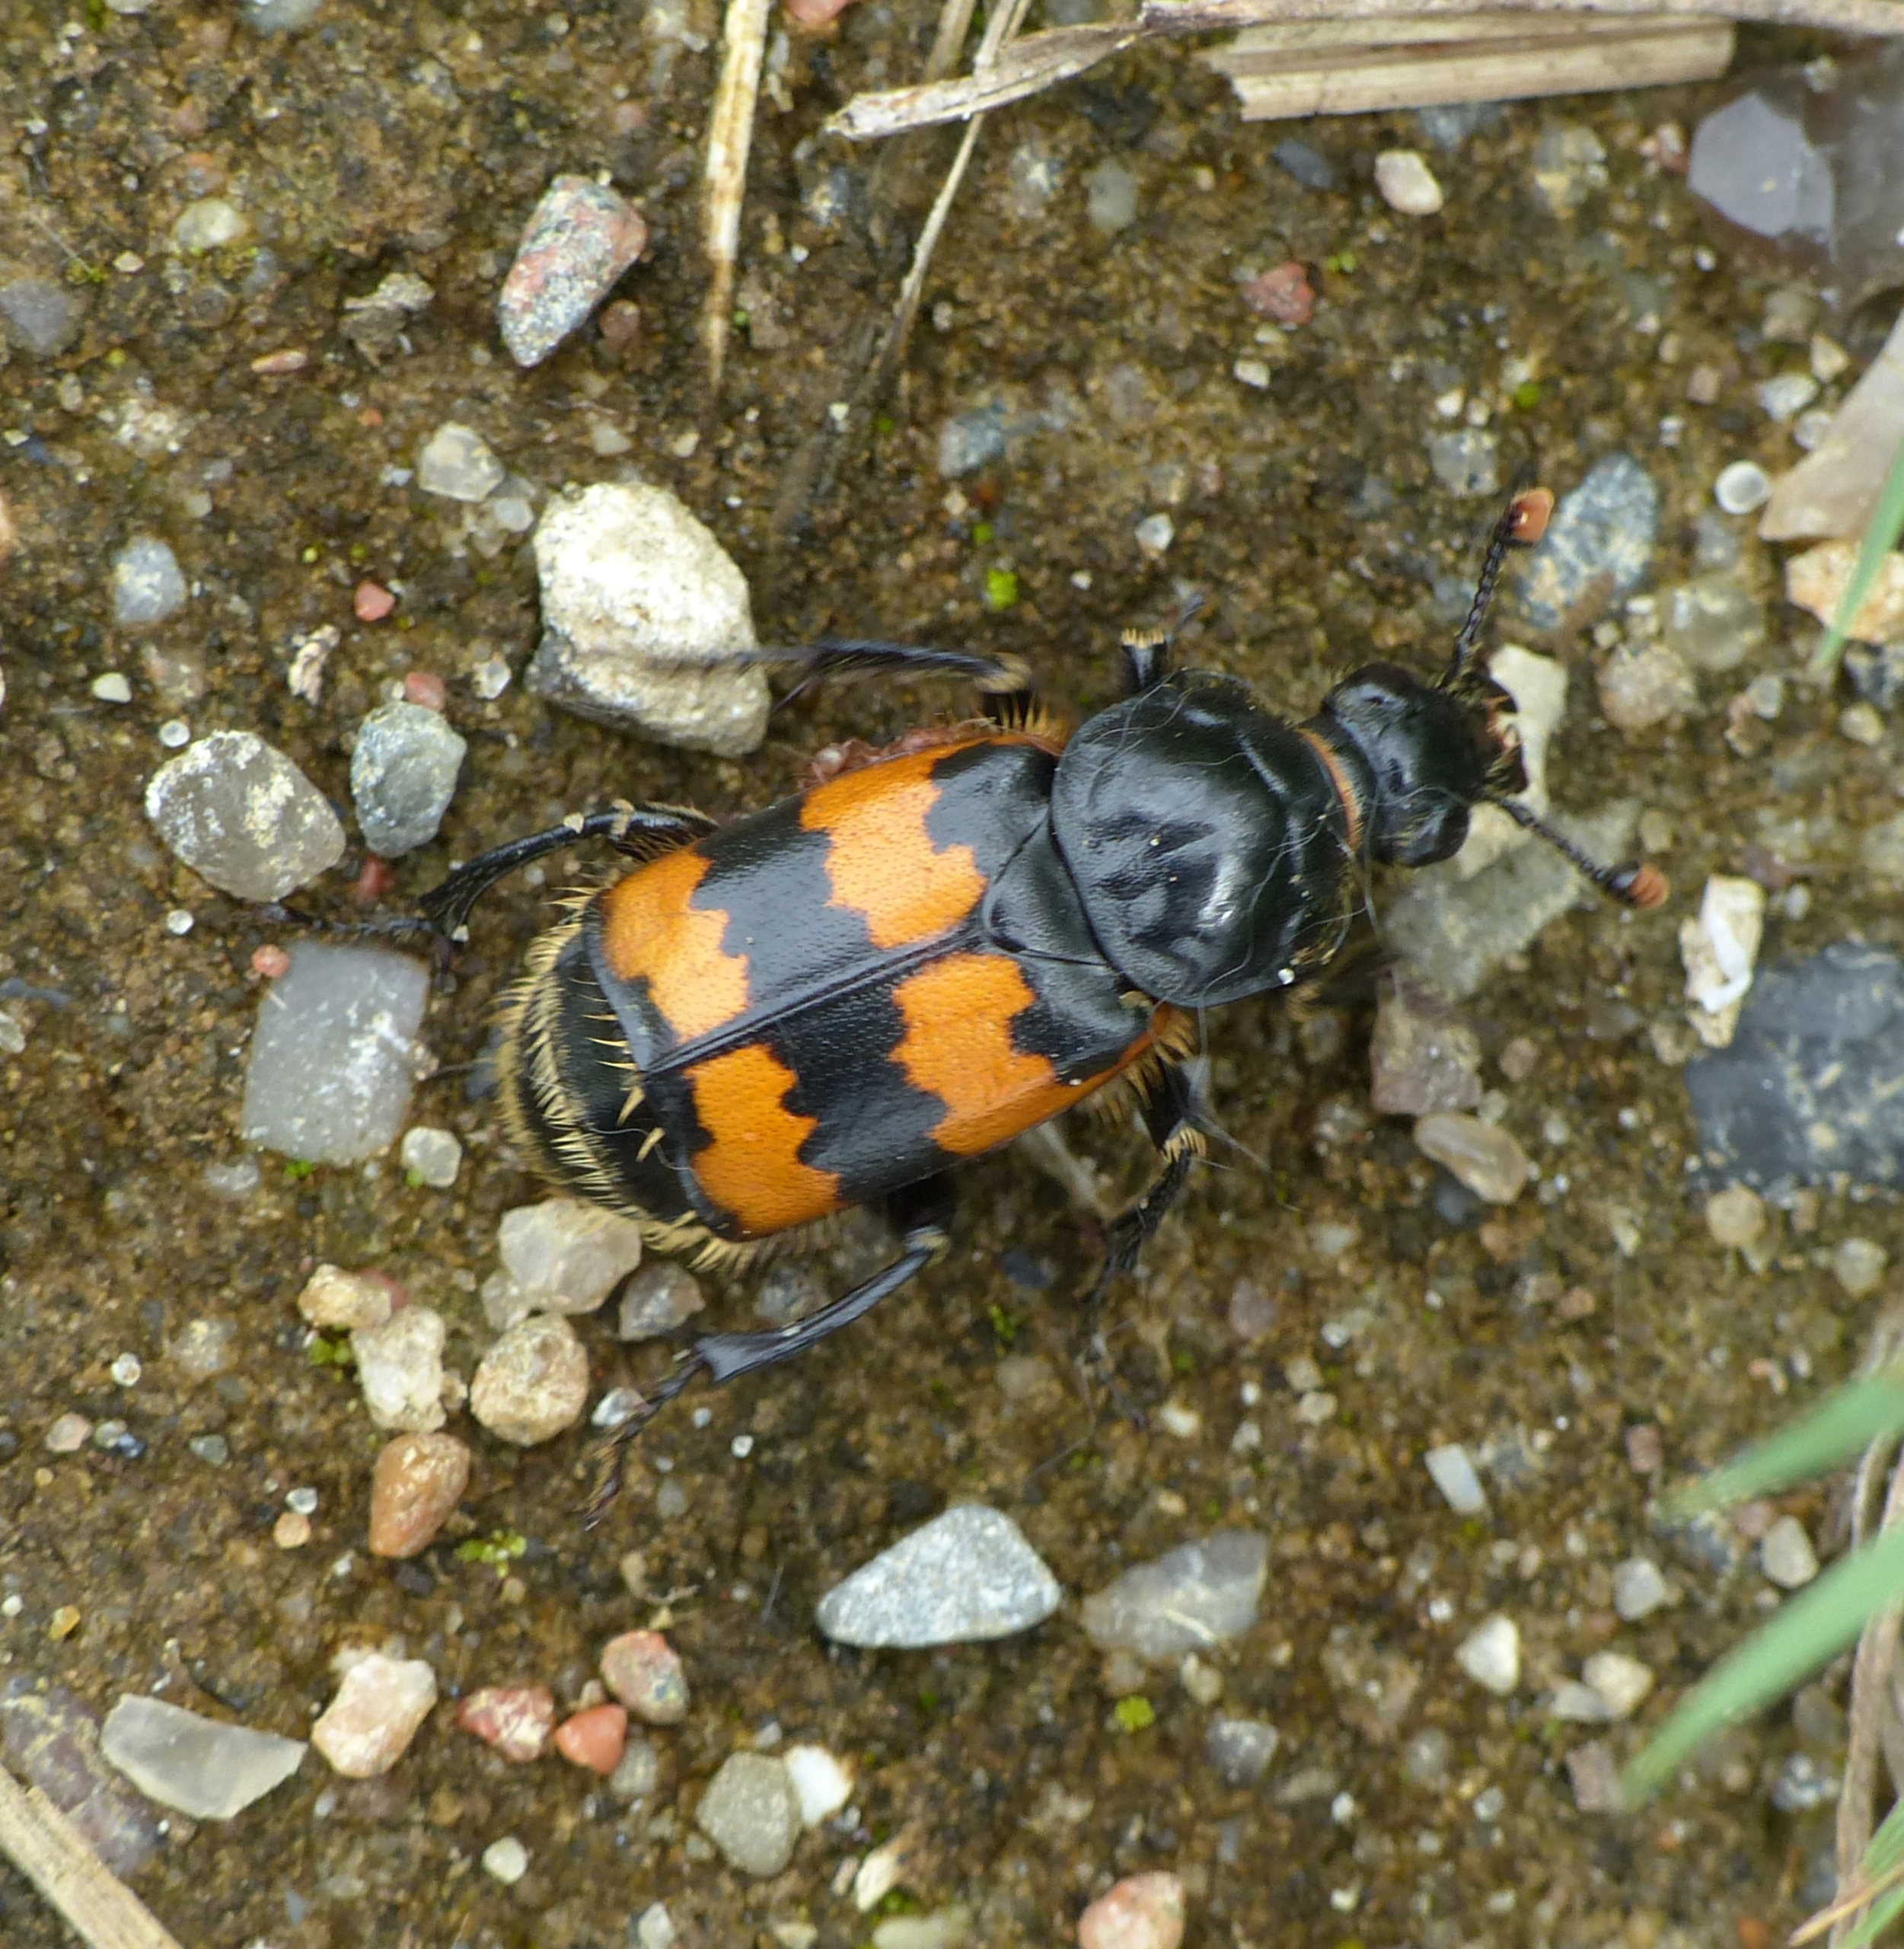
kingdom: Animalia
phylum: Arthropoda
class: Insecta
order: Coleoptera
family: Staphylinidae
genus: Nicrophorus
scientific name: Nicrophorus vespillo
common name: Krumbenet ådselgraver
